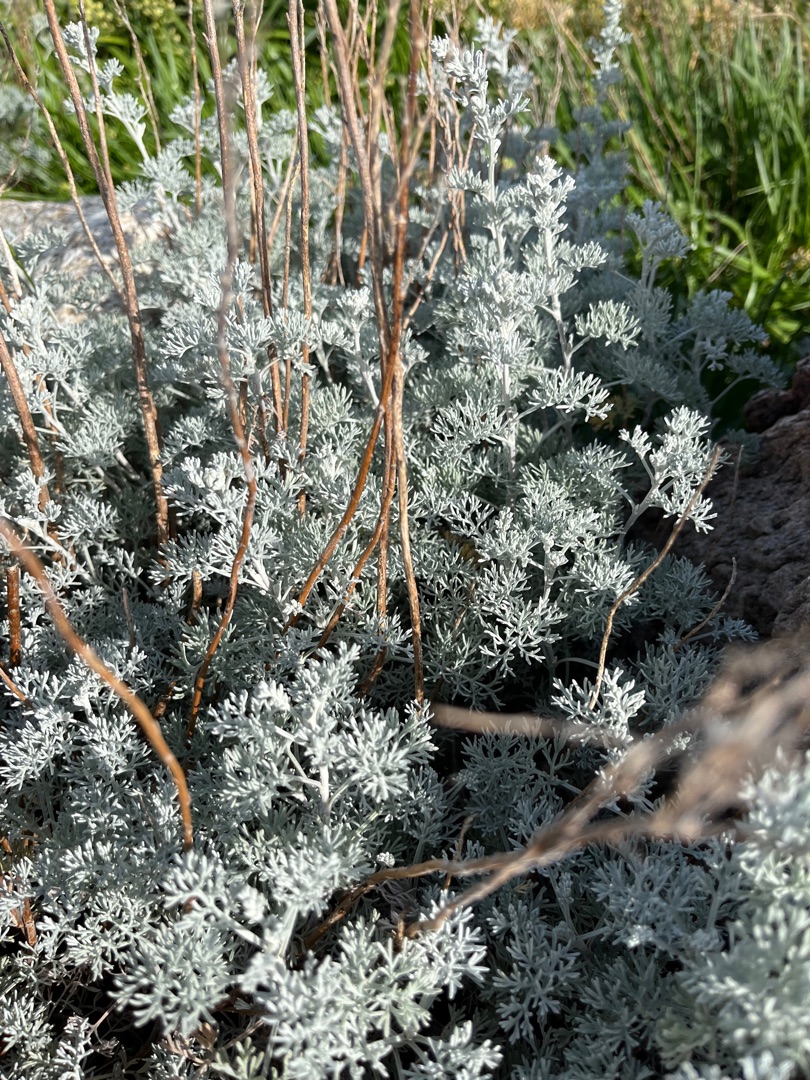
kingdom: Plantae
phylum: Tracheophyta
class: Magnoliopsida
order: Asterales
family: Asteraceae
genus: Artemisia
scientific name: Artemisia maritima
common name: Strandmalurt
